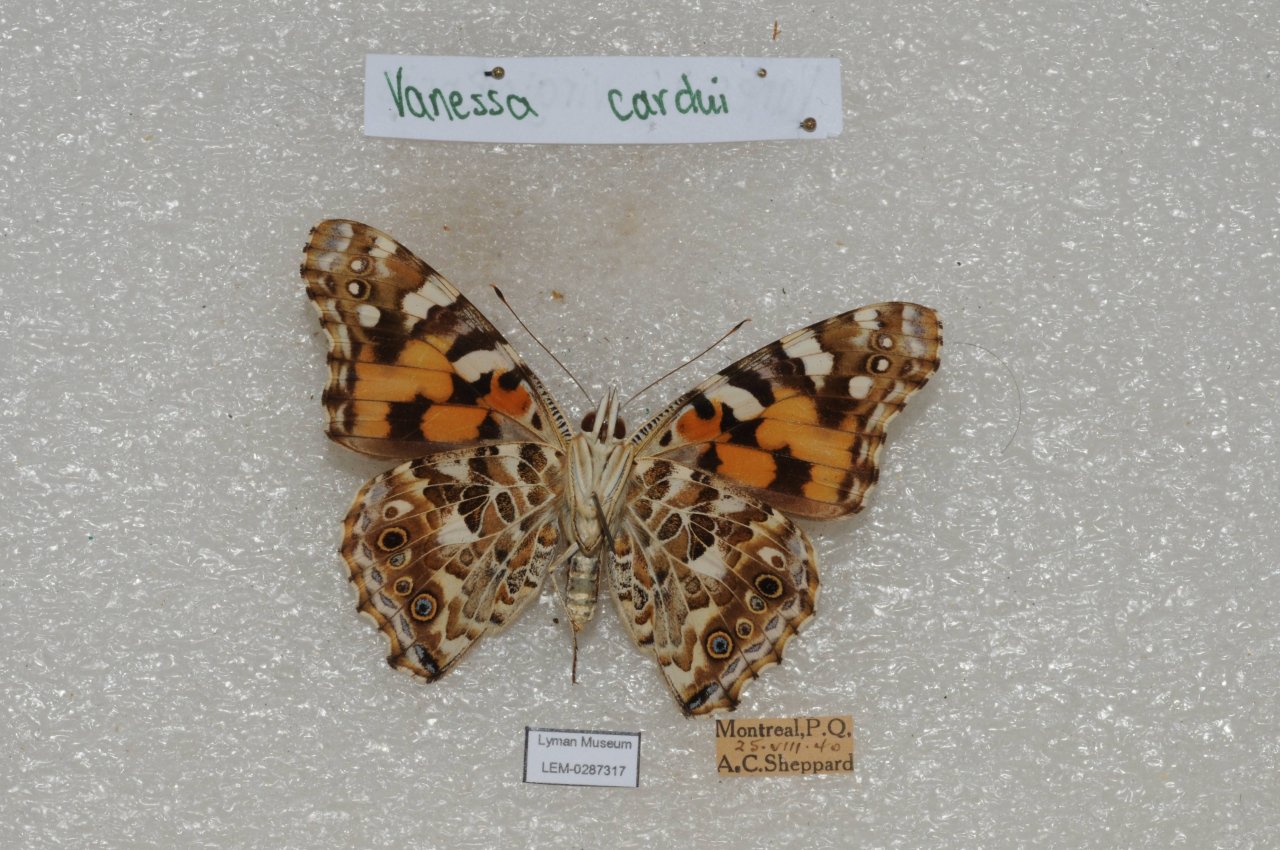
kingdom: Animalia
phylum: Arthropoda
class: Insecta
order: Lepidoptera
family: Nymphalidae
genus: Vanessa
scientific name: Vanessa cardui
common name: Painted Lady
